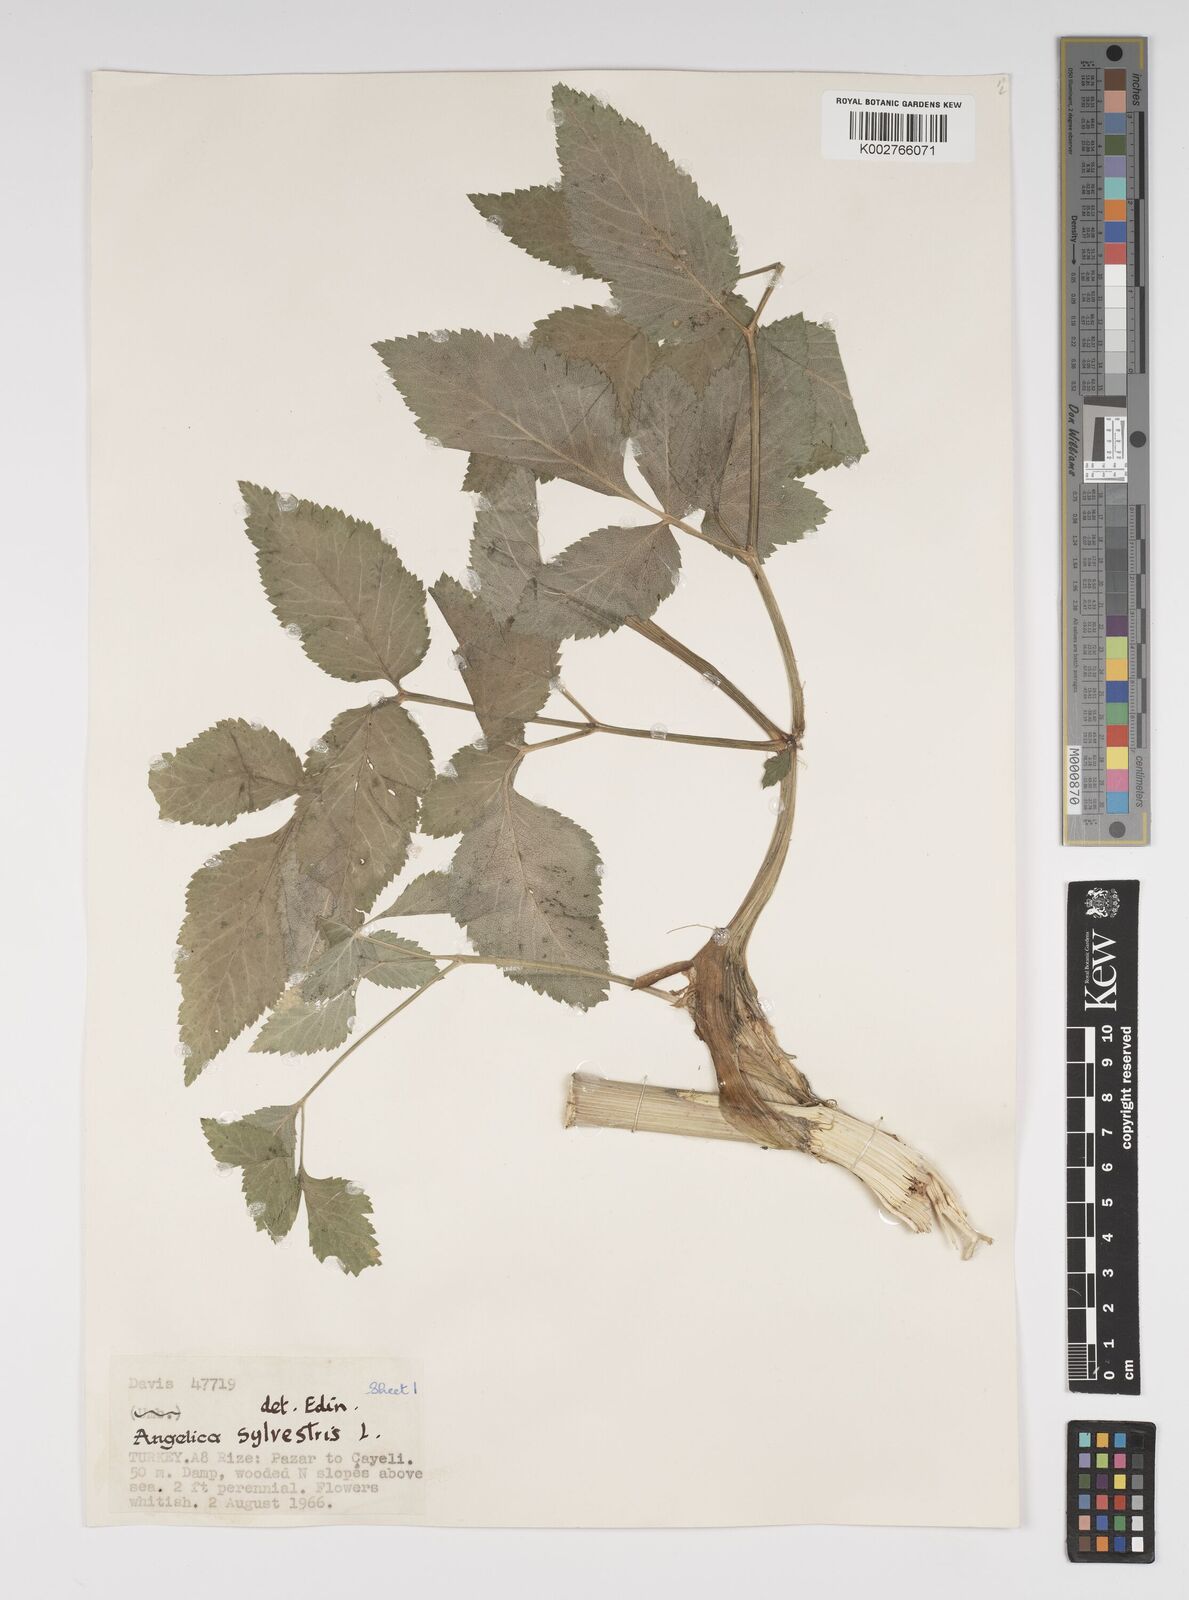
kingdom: Plantae
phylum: Tracheophyta
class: Magnoliopsida
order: Apiales
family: Apiaceae
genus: Angelica
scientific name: Angelica sylvestris
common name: Wild angelica
